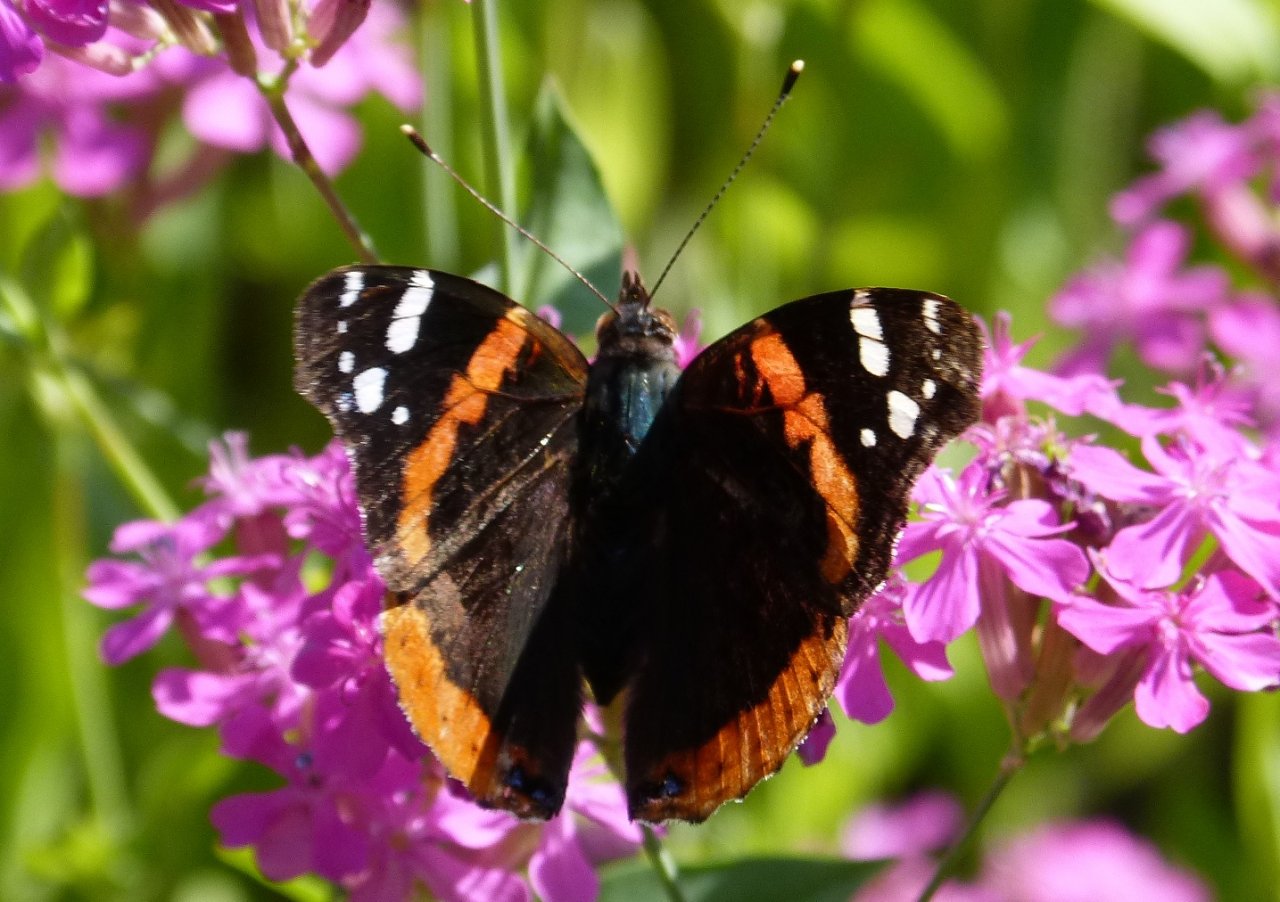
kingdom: Animalia
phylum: Arthropoda
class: Insecta
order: Lepidoptera
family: Nymphalidae
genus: Vanessa
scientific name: Vanessa atalanta
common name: Red Admiral
